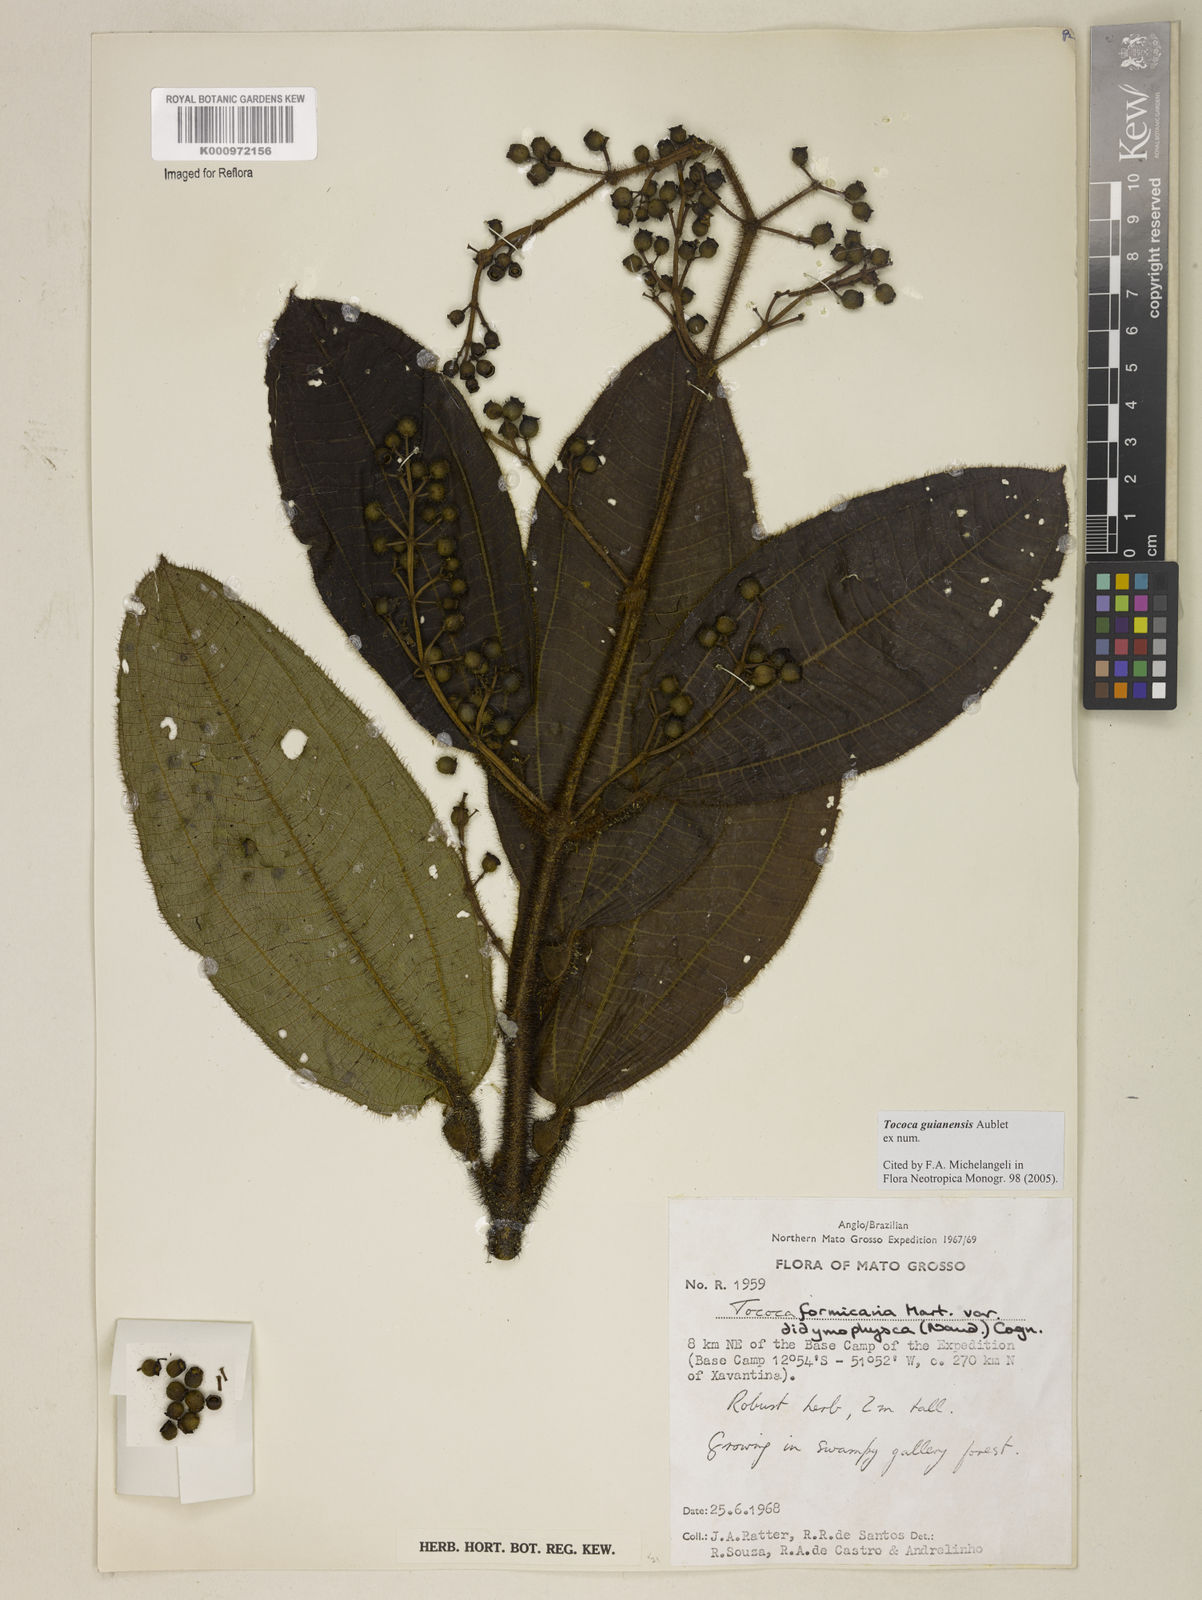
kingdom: Plantae
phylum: Tracheophyta
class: Magnoliopsida
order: Myrtales
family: Melastomataceae
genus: Miconia
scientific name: Miconia tococa
